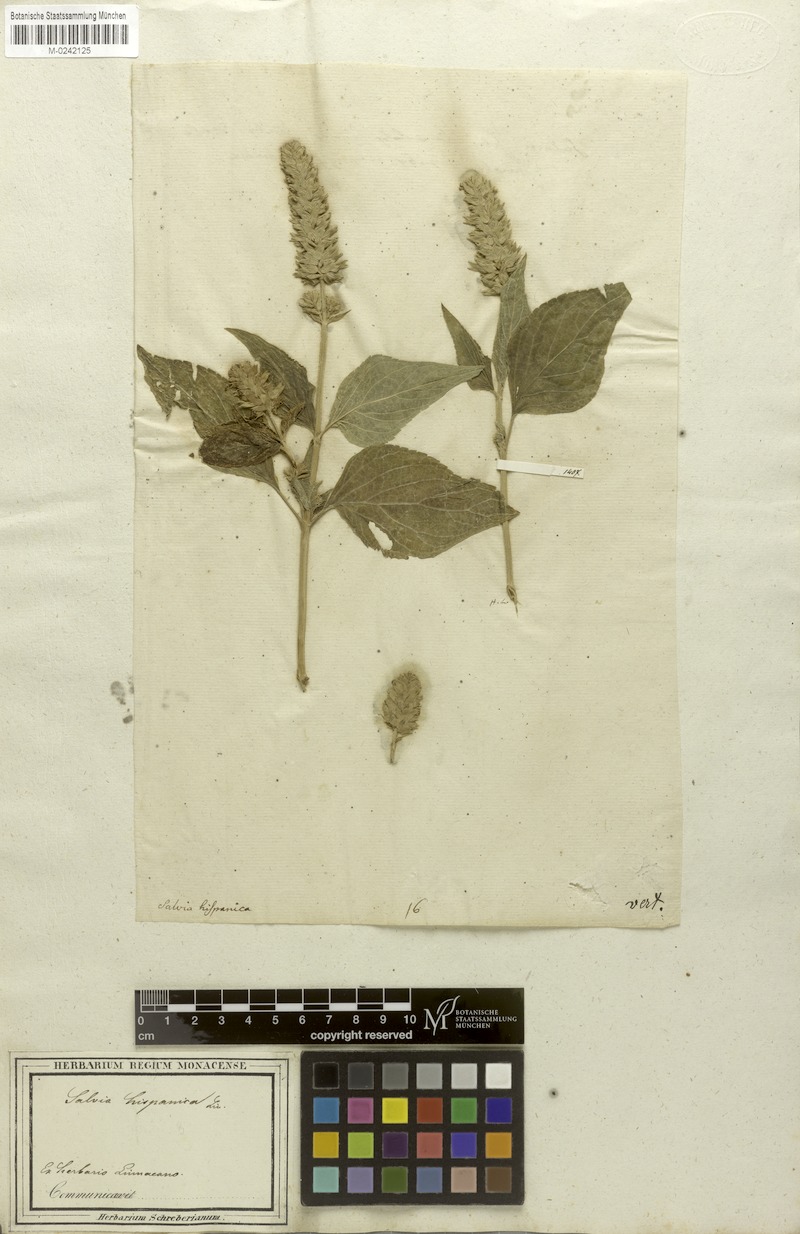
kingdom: Plantae
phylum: Tracheophyta
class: Magnoliopsida
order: Lamiales
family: Lamiaceae
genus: Salvia
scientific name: Salvia hispanica
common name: Chia
